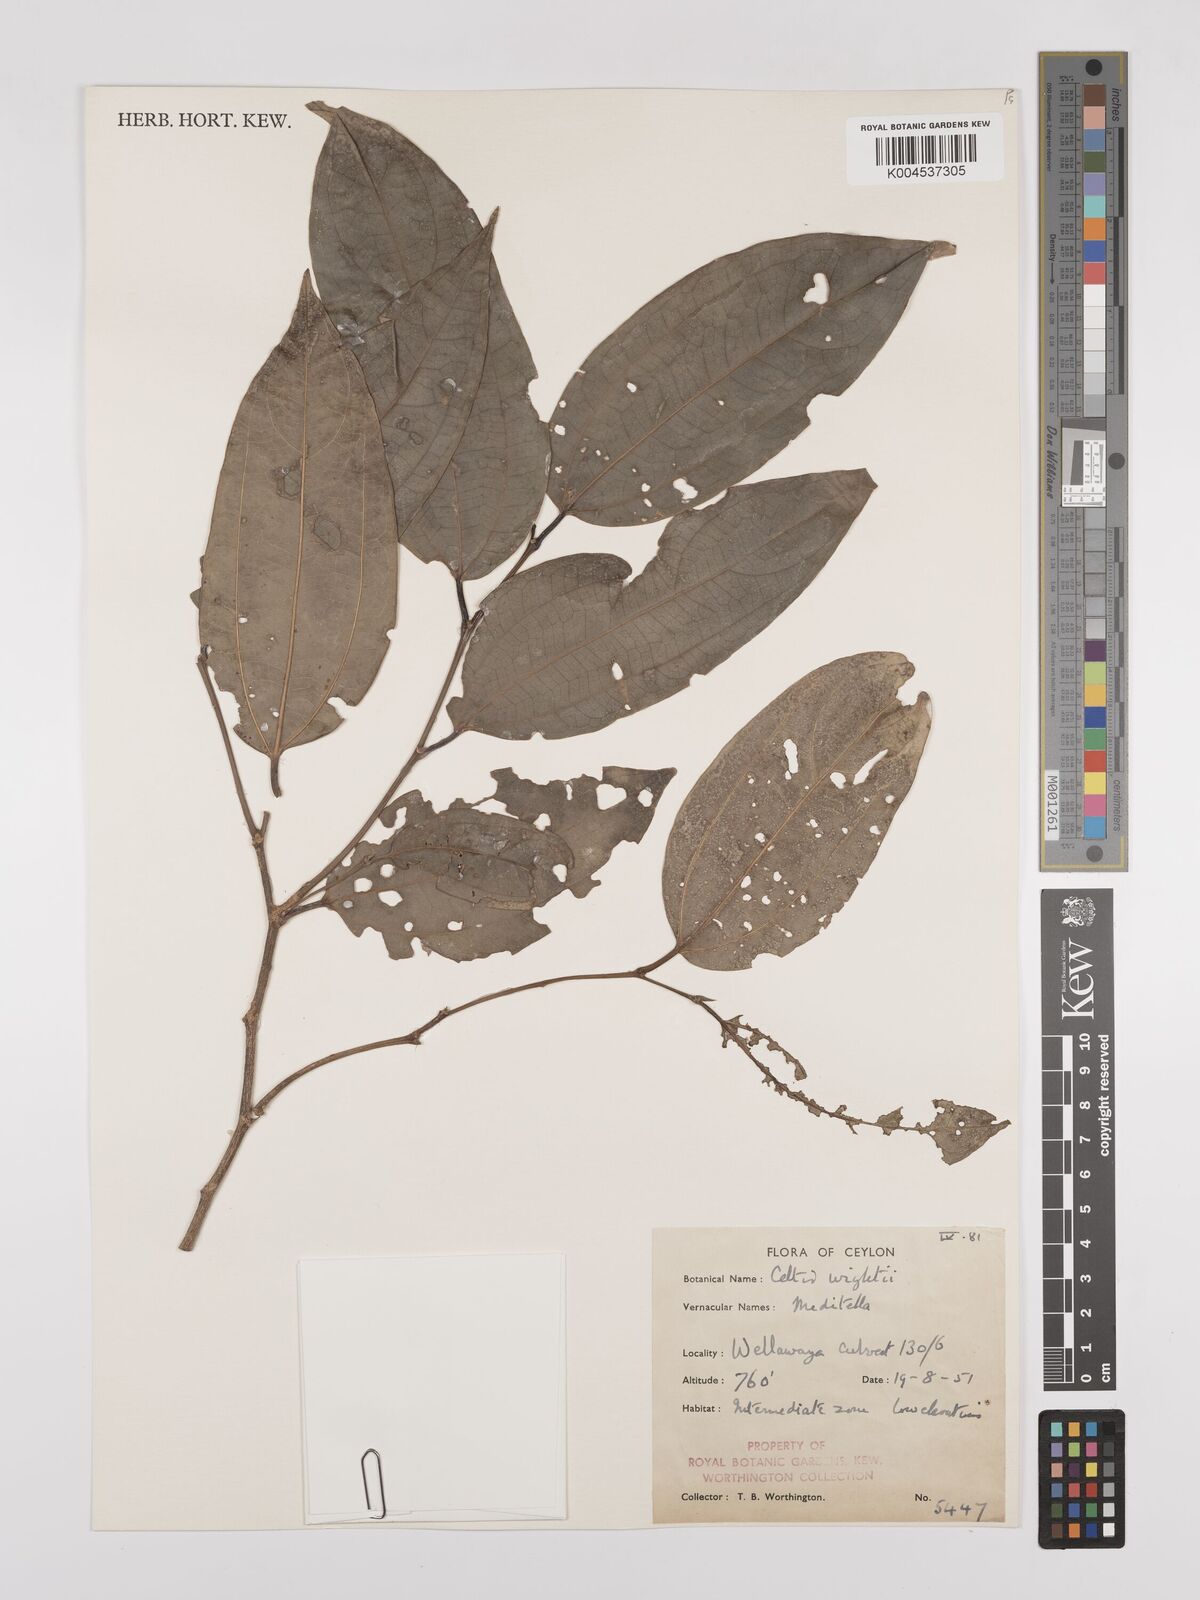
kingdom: Plantae
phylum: Tracheophyta
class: Magnoliopsida
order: Rosales
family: Cannabaceae
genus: Celtis
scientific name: Celtis philippensis
